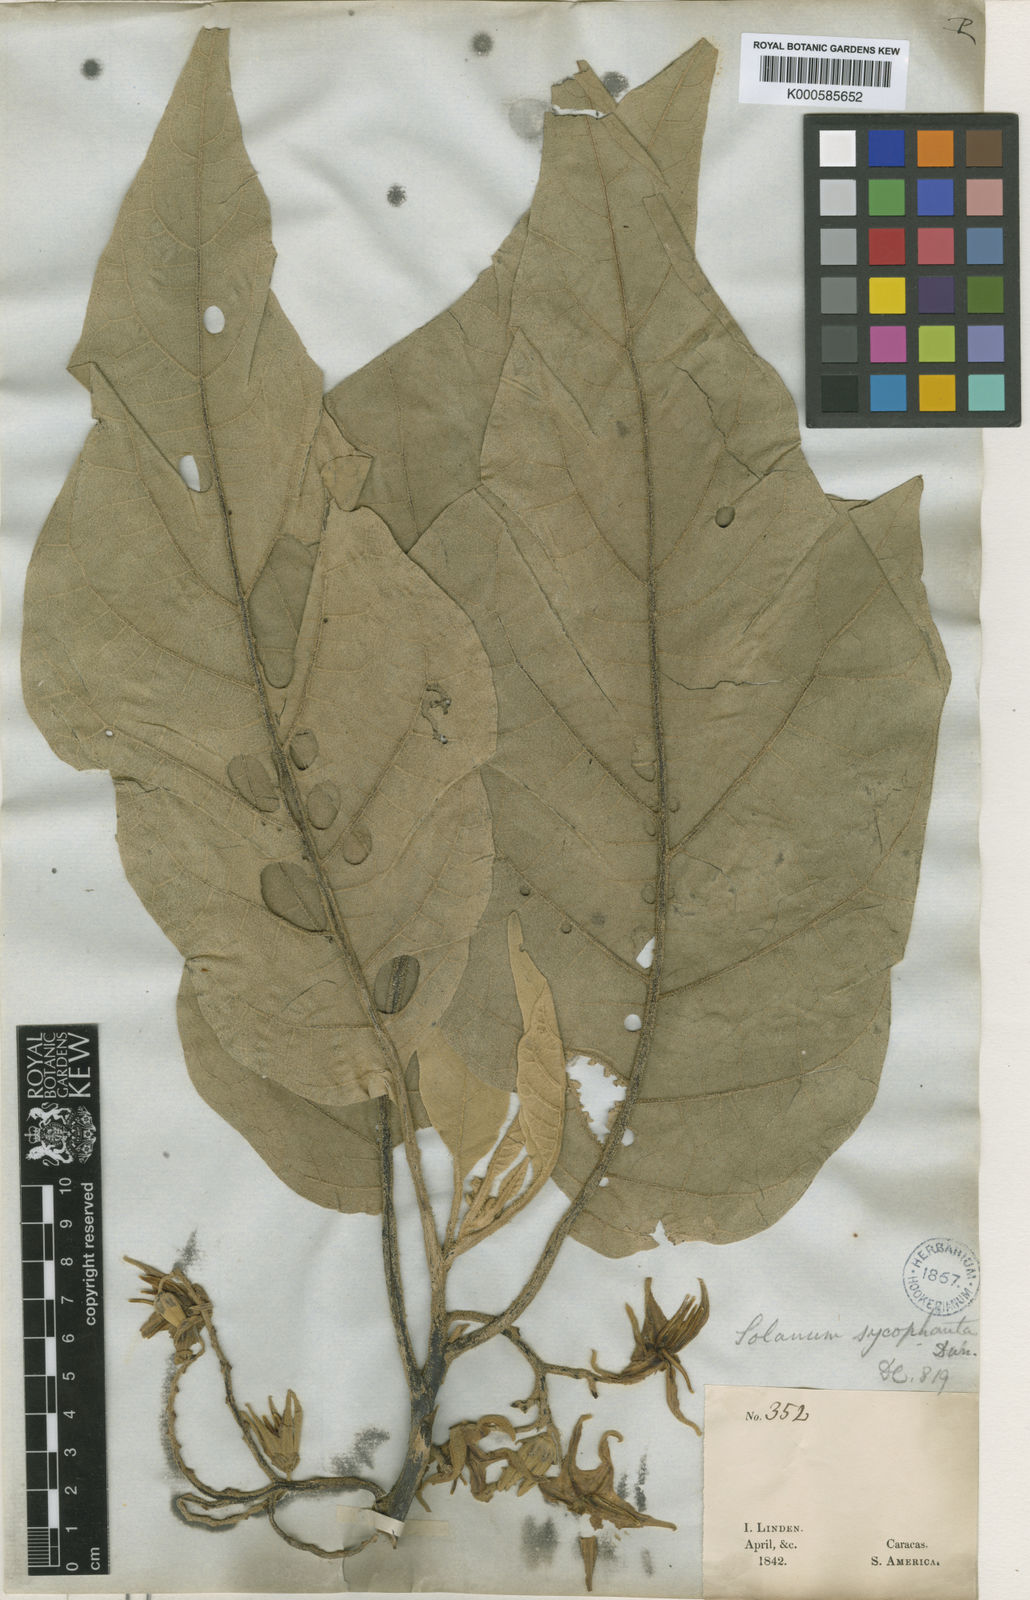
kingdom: Plantae
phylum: Tracheophyta
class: Magnoliopsida
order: Solanales
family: Solanaceae
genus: Solanum
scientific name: Solanum sycophanta
